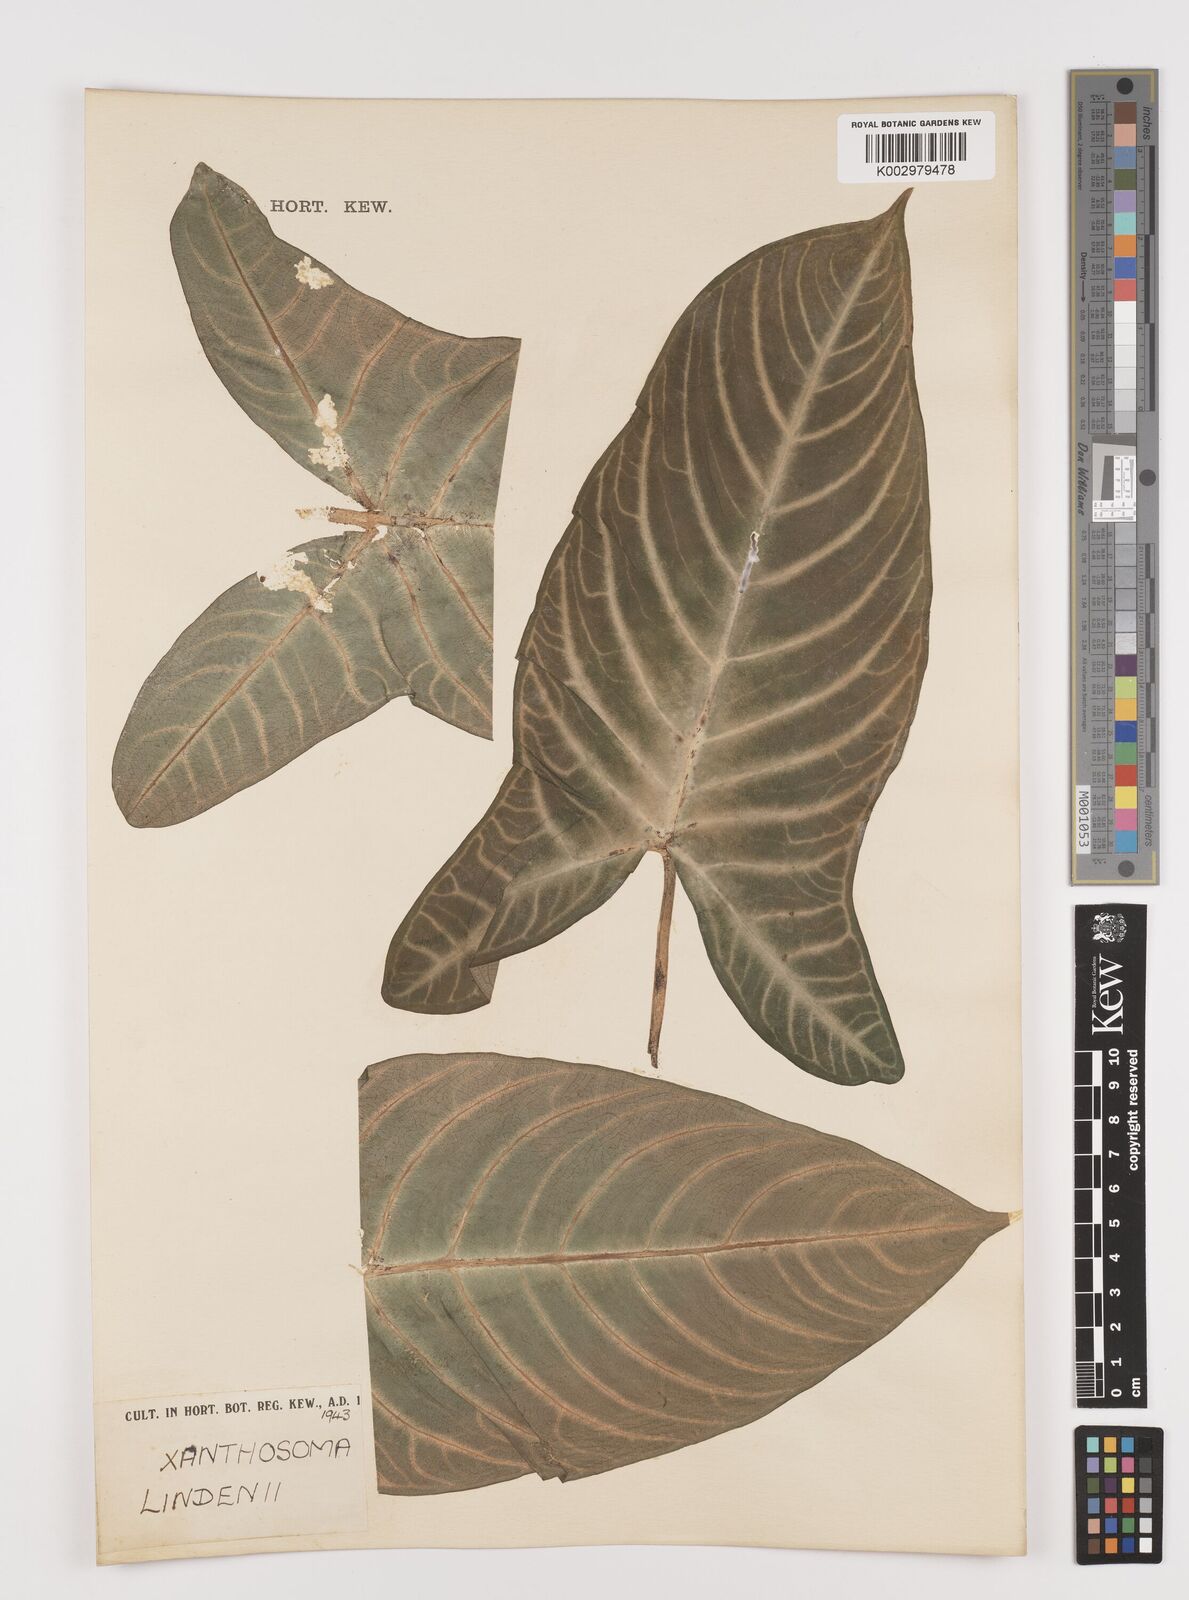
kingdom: Plantae
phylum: Tracheophyta
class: Liliopsida
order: Alismatales
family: Araceae
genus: Caladium
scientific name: Caladium lindenii
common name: Indian-kale
